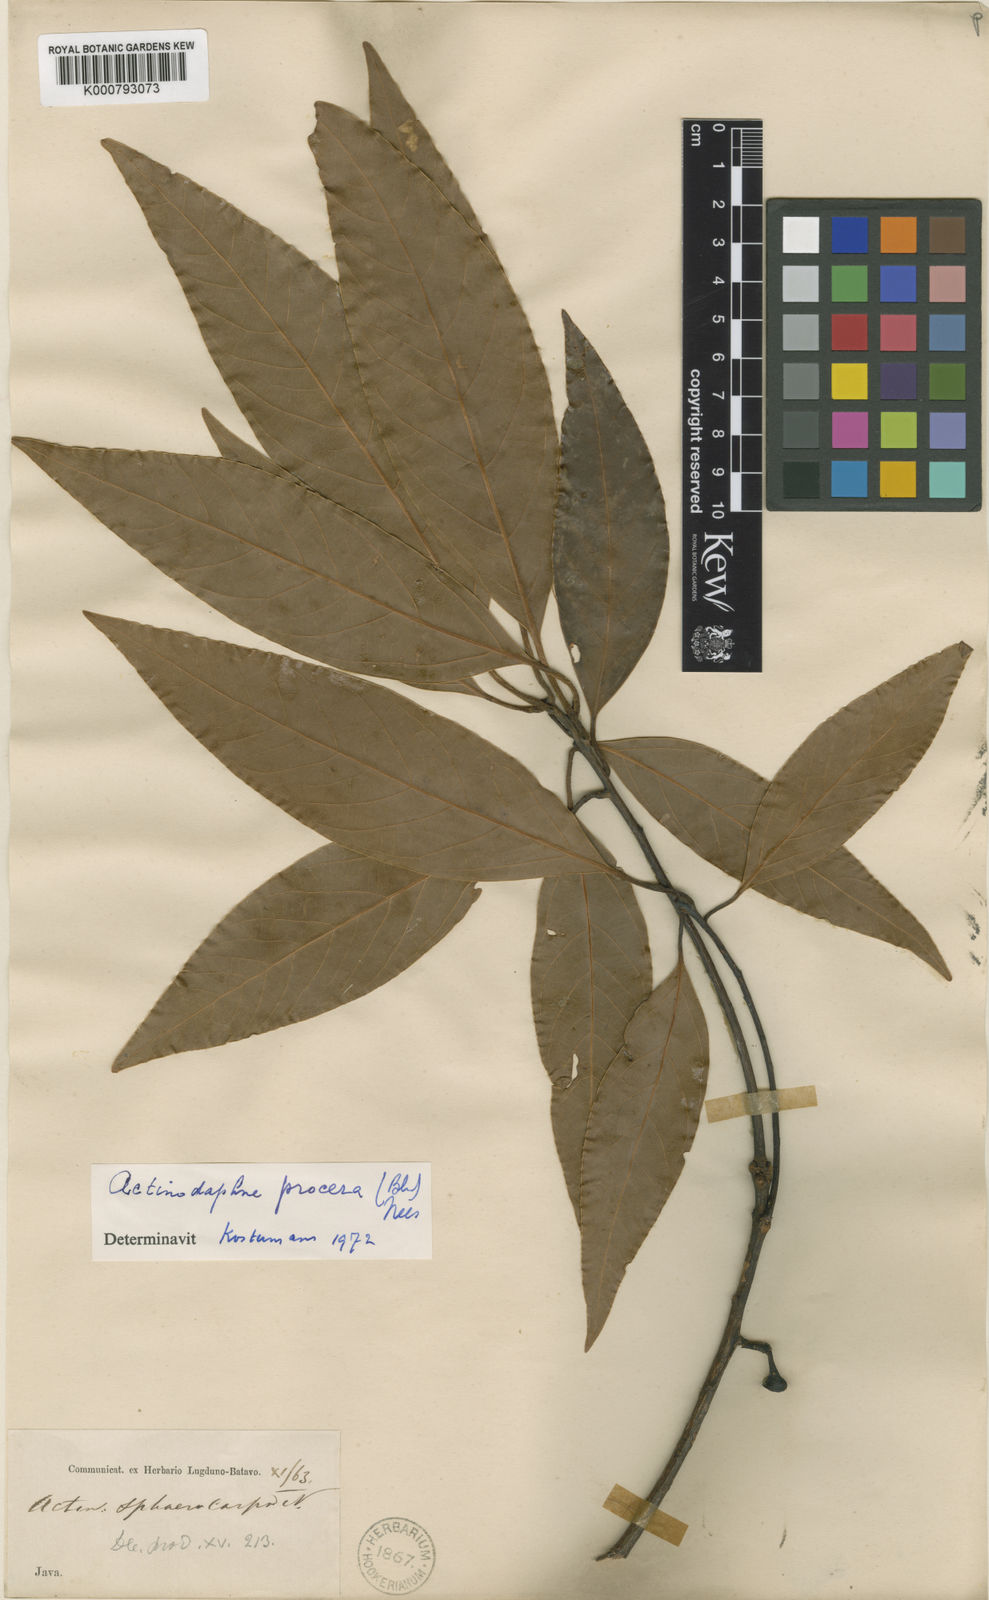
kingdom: Plantae
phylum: Tracheophyta
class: Magnoliopsida
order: Laurales
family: Lauraceae
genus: Actinodaphne
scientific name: Actinodaphne procera
